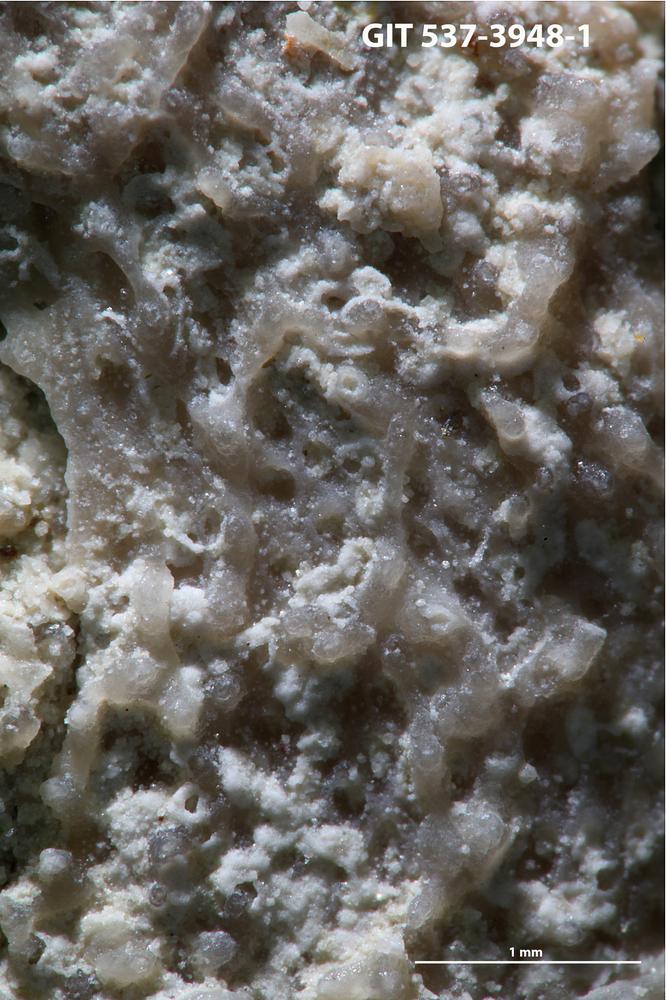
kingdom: Animalia
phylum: Bryozoa
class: Stenolaemata
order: Cyclostomatida
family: Corynotrypidae
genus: Corynotrypa
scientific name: Corynotrypa
